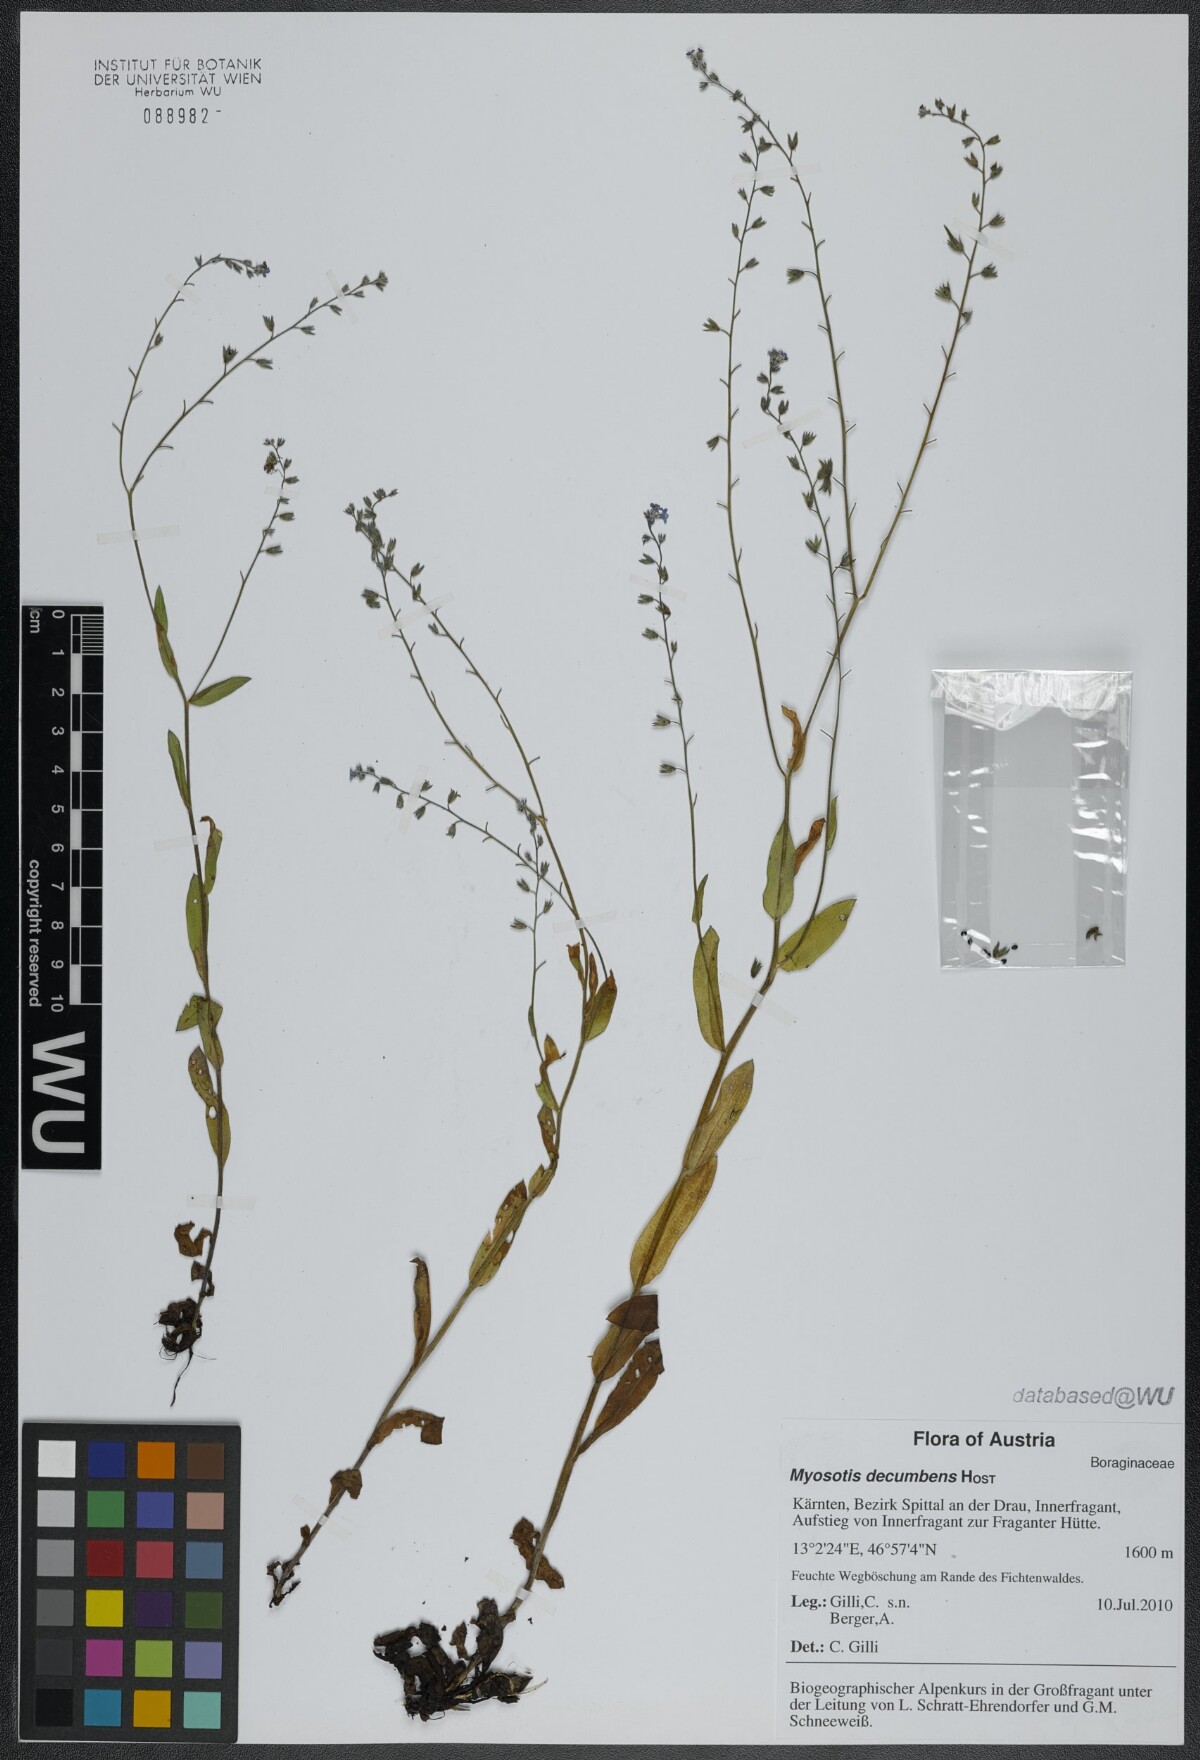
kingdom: Plantae
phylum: Tracheophyta
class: Magnoliopsida
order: Boraginales
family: Boraginaceae
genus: Myosotis
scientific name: Myosotis decumbens
